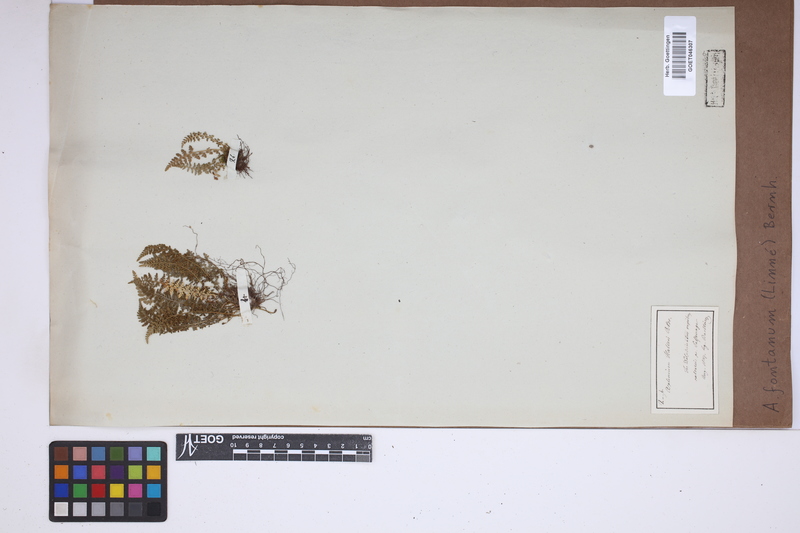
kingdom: Plantae
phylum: Tracheophyta
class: Polypodiopsida
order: Polypodiales
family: Aspleniaceae
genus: Asplenium
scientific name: Asplenium fontanum
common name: Fountain spleenwort
